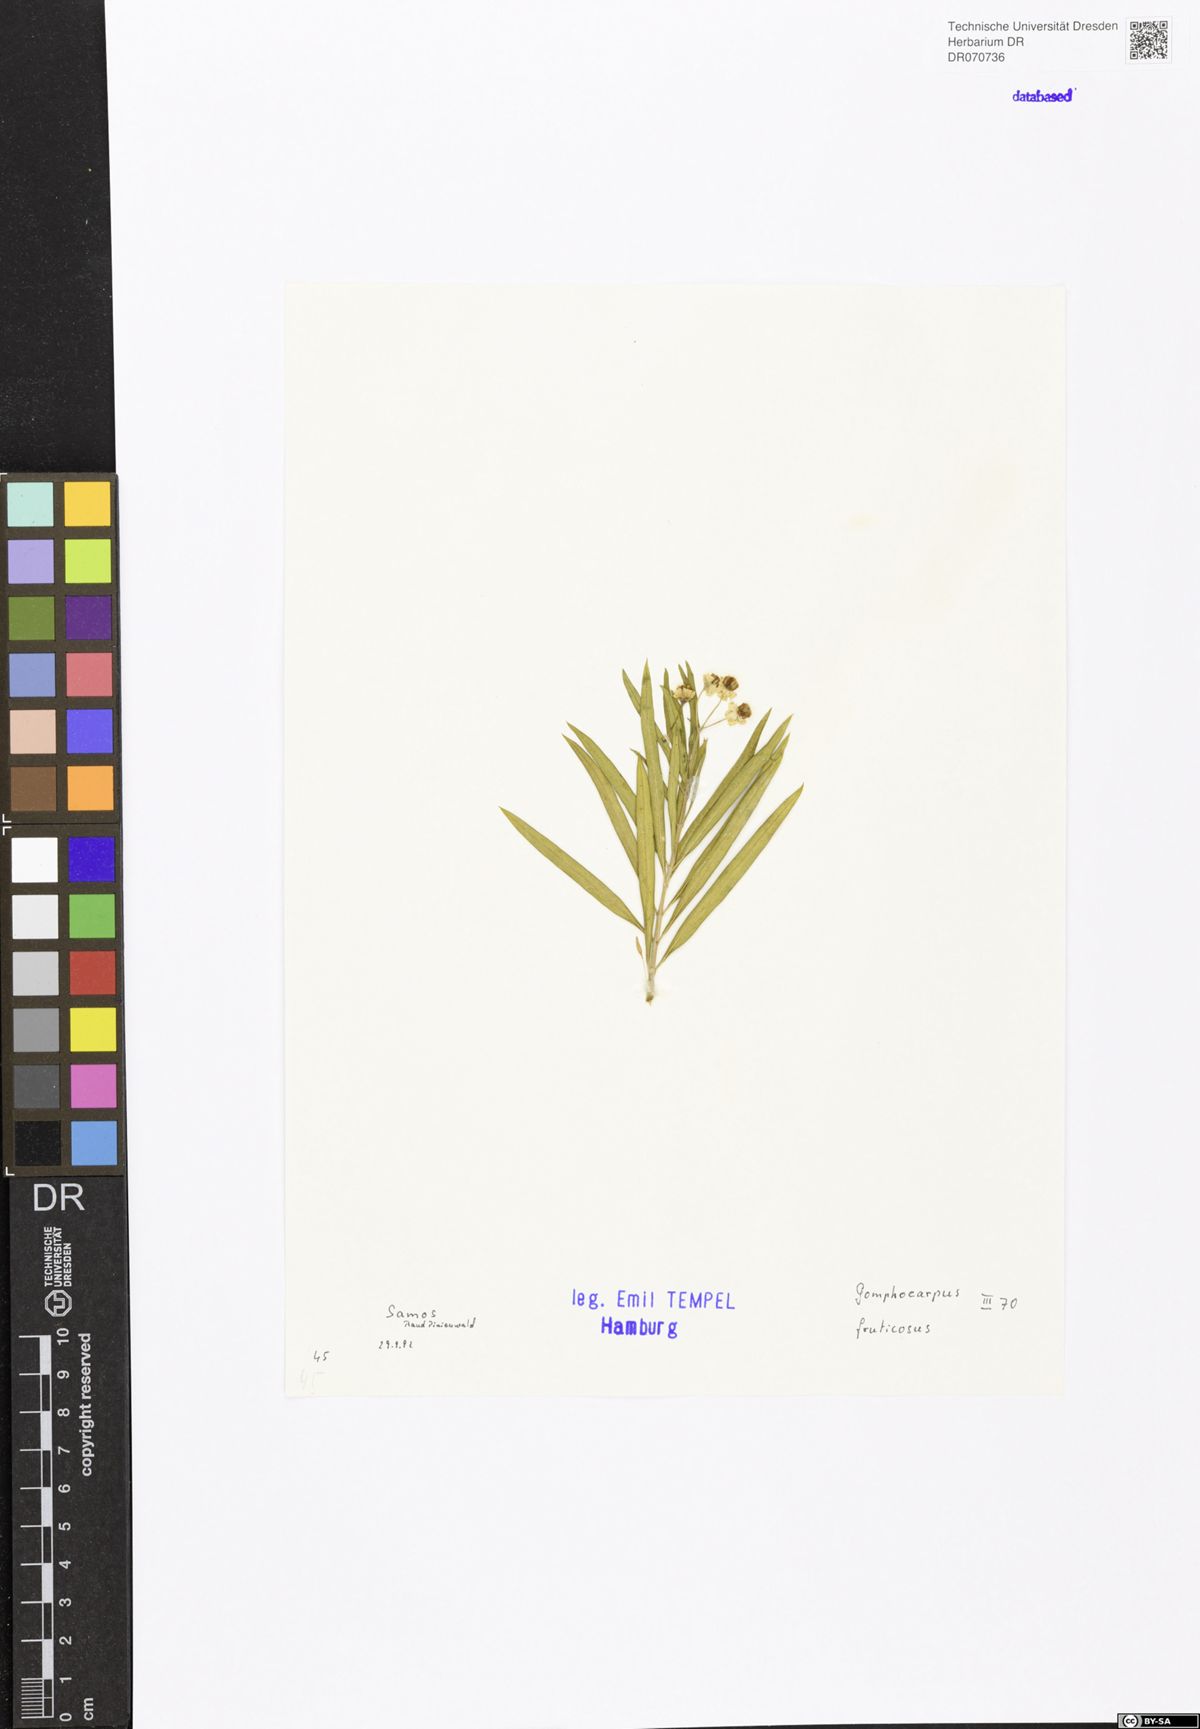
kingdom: Plantae
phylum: Tracheophyta
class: Magnoliopsida
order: Gentianales
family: Apocynaceae
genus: Gomphocarpus
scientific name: Gomphocarpus fruticosus
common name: Milkweed
